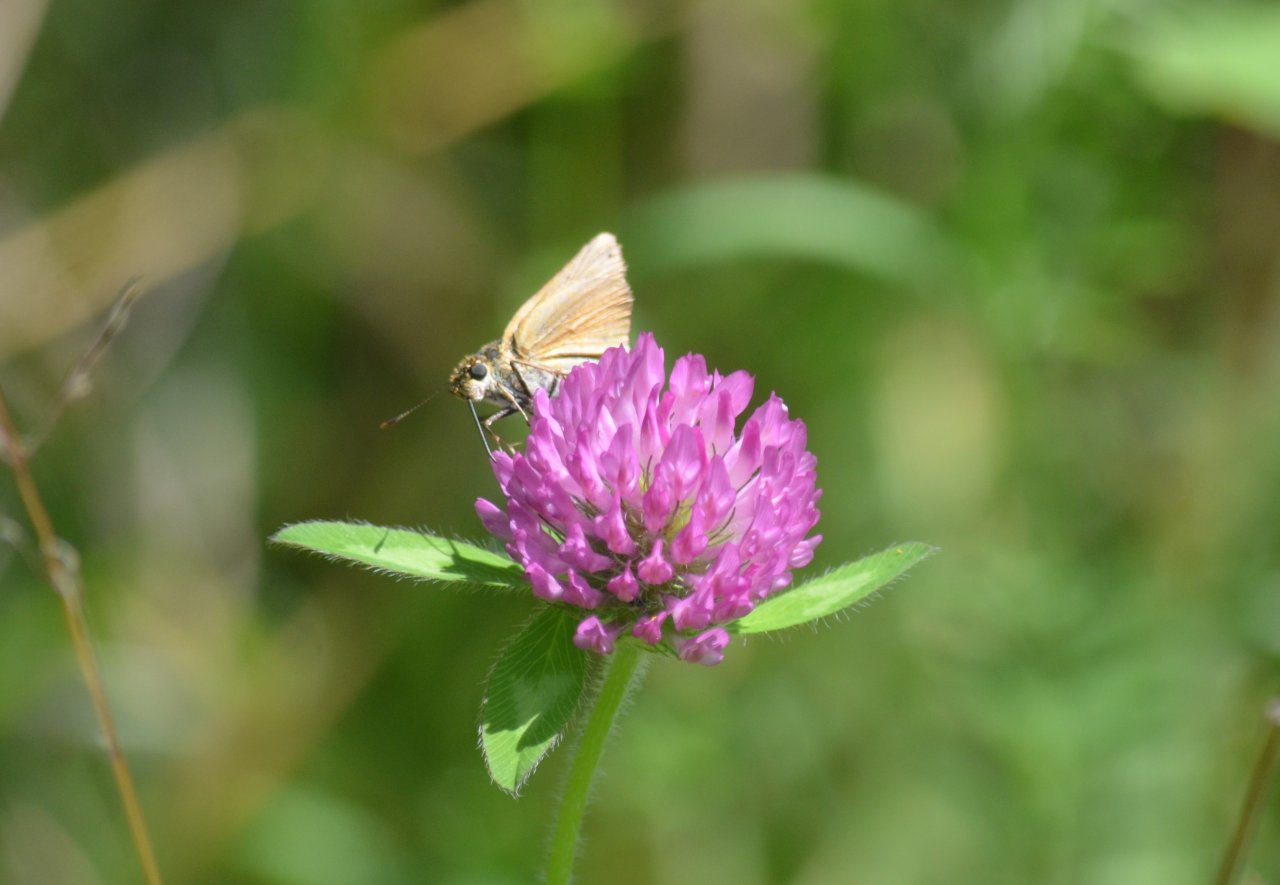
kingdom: Animalia
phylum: Arthropoda
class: Insecta
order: Lepidoptera
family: Hesperiidae
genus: Hesperopsis
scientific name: Hesperopsis
